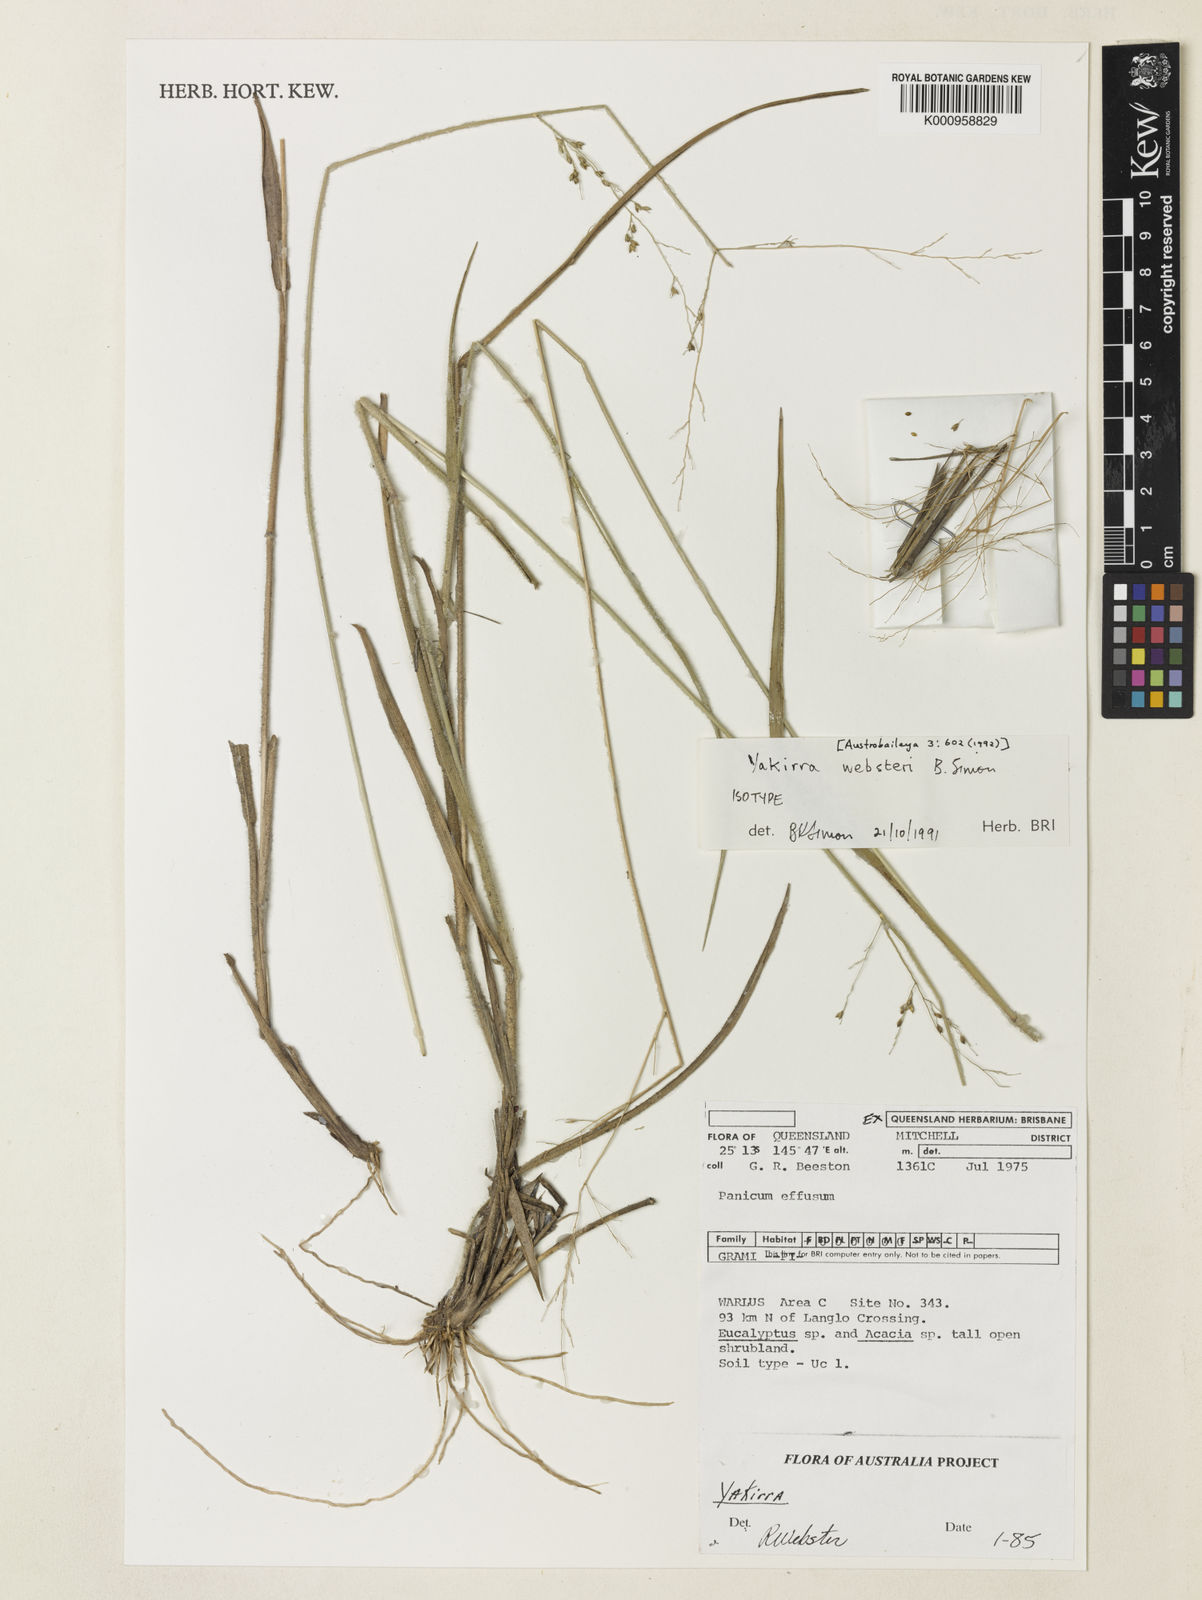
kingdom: Plantae
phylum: Tracheophyta
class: Liliopsida
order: Poales
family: Poaceae
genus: Panicum
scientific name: Panicum Yakirra websteri
